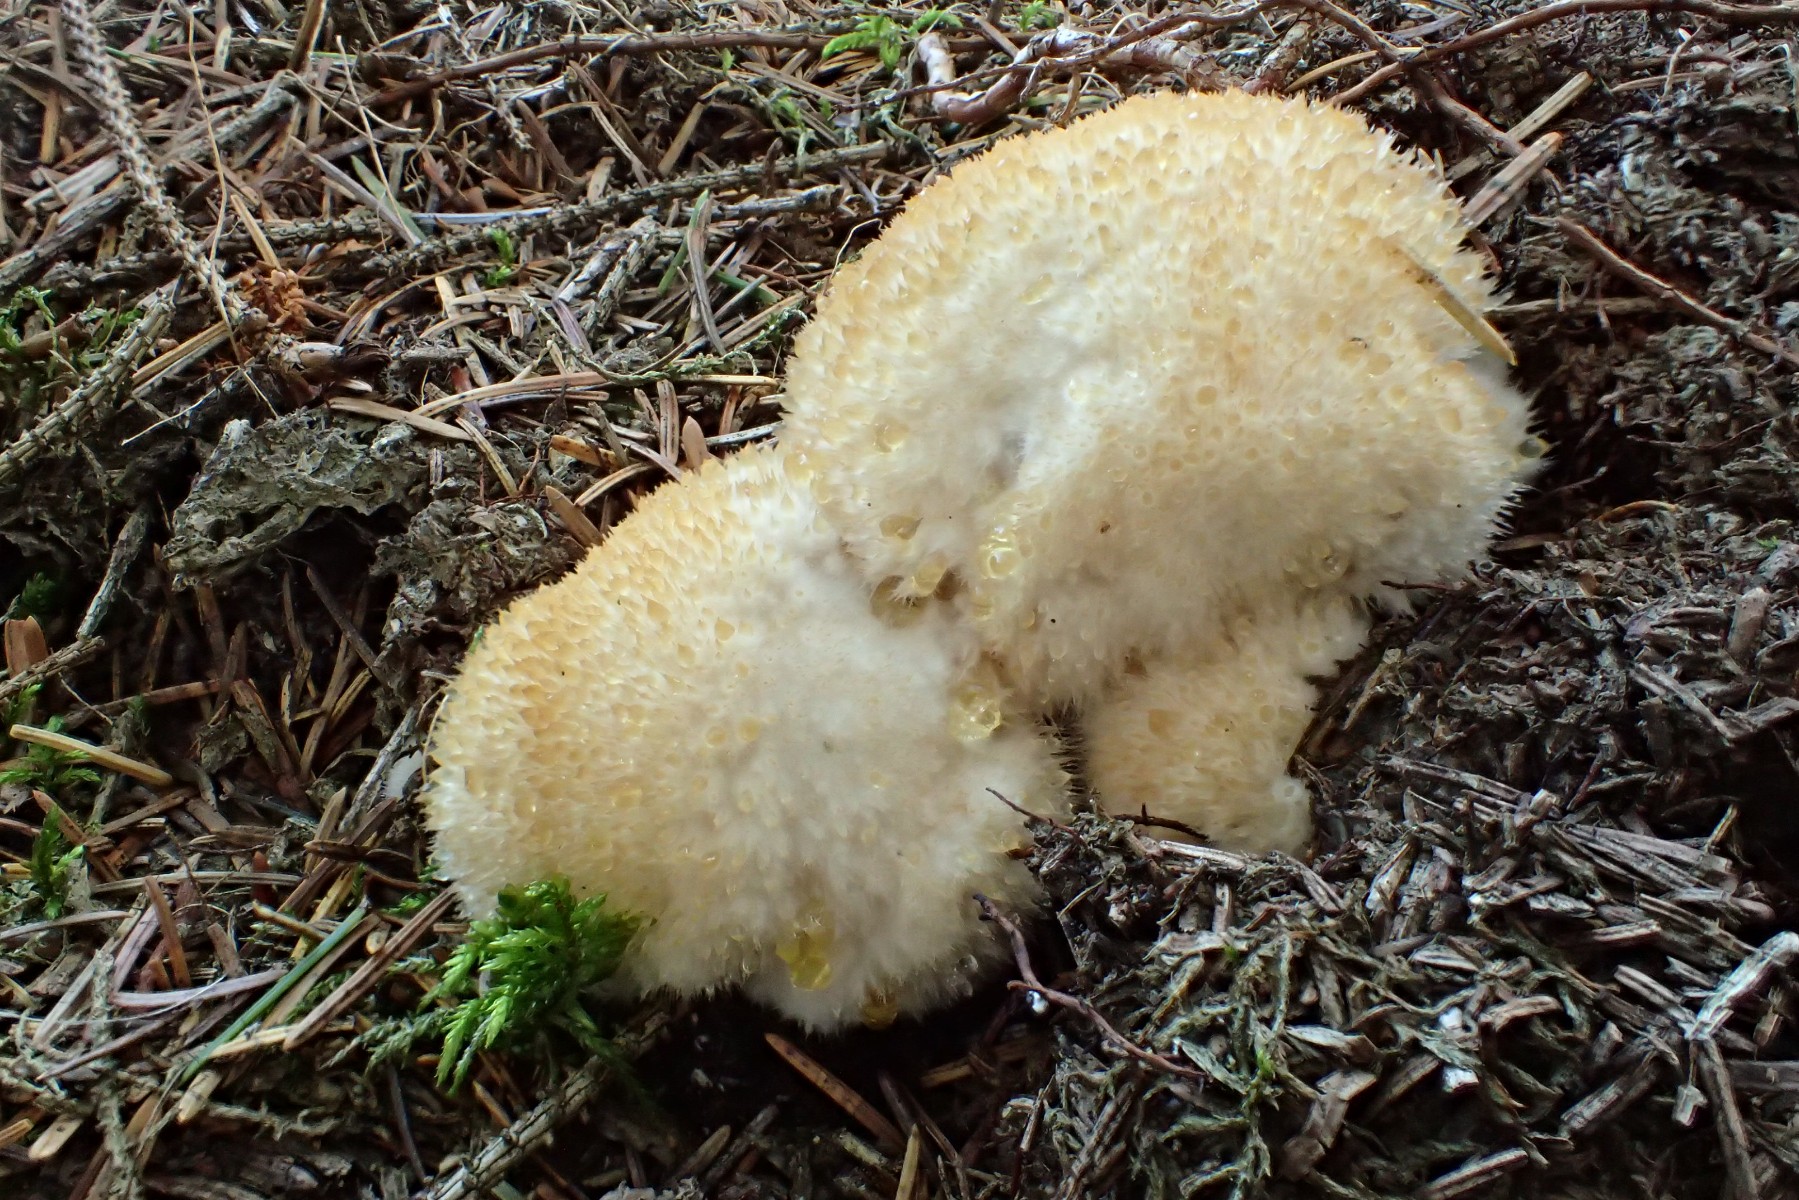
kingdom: Fungi
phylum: Basidiomycota
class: Agaricomycetes
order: Polyporales
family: Dacryobolaceae
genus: Postia
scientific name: Postia ptychogaster
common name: støvende kødporesvamp
